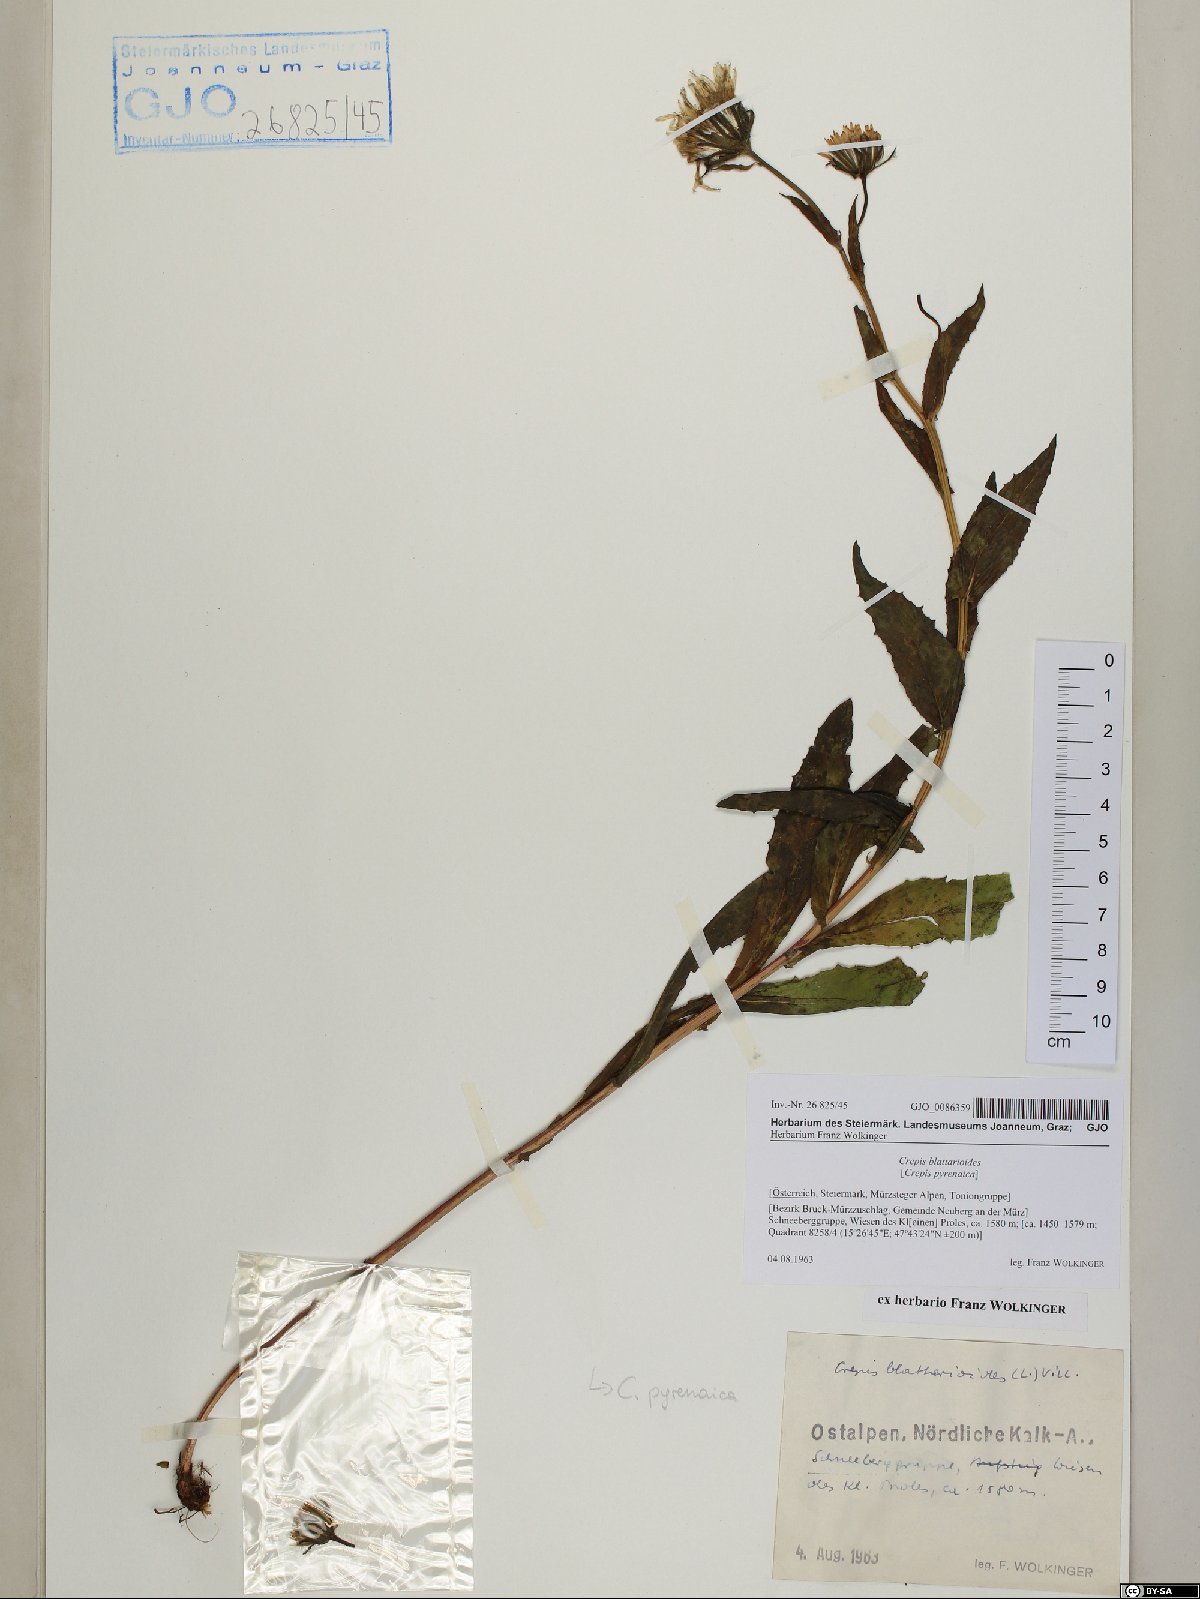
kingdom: Plantae
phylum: Tracheophyta
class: Magnoliopsida
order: Asterales
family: Asteraceae
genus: Crepis
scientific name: Crepis blattarioides
